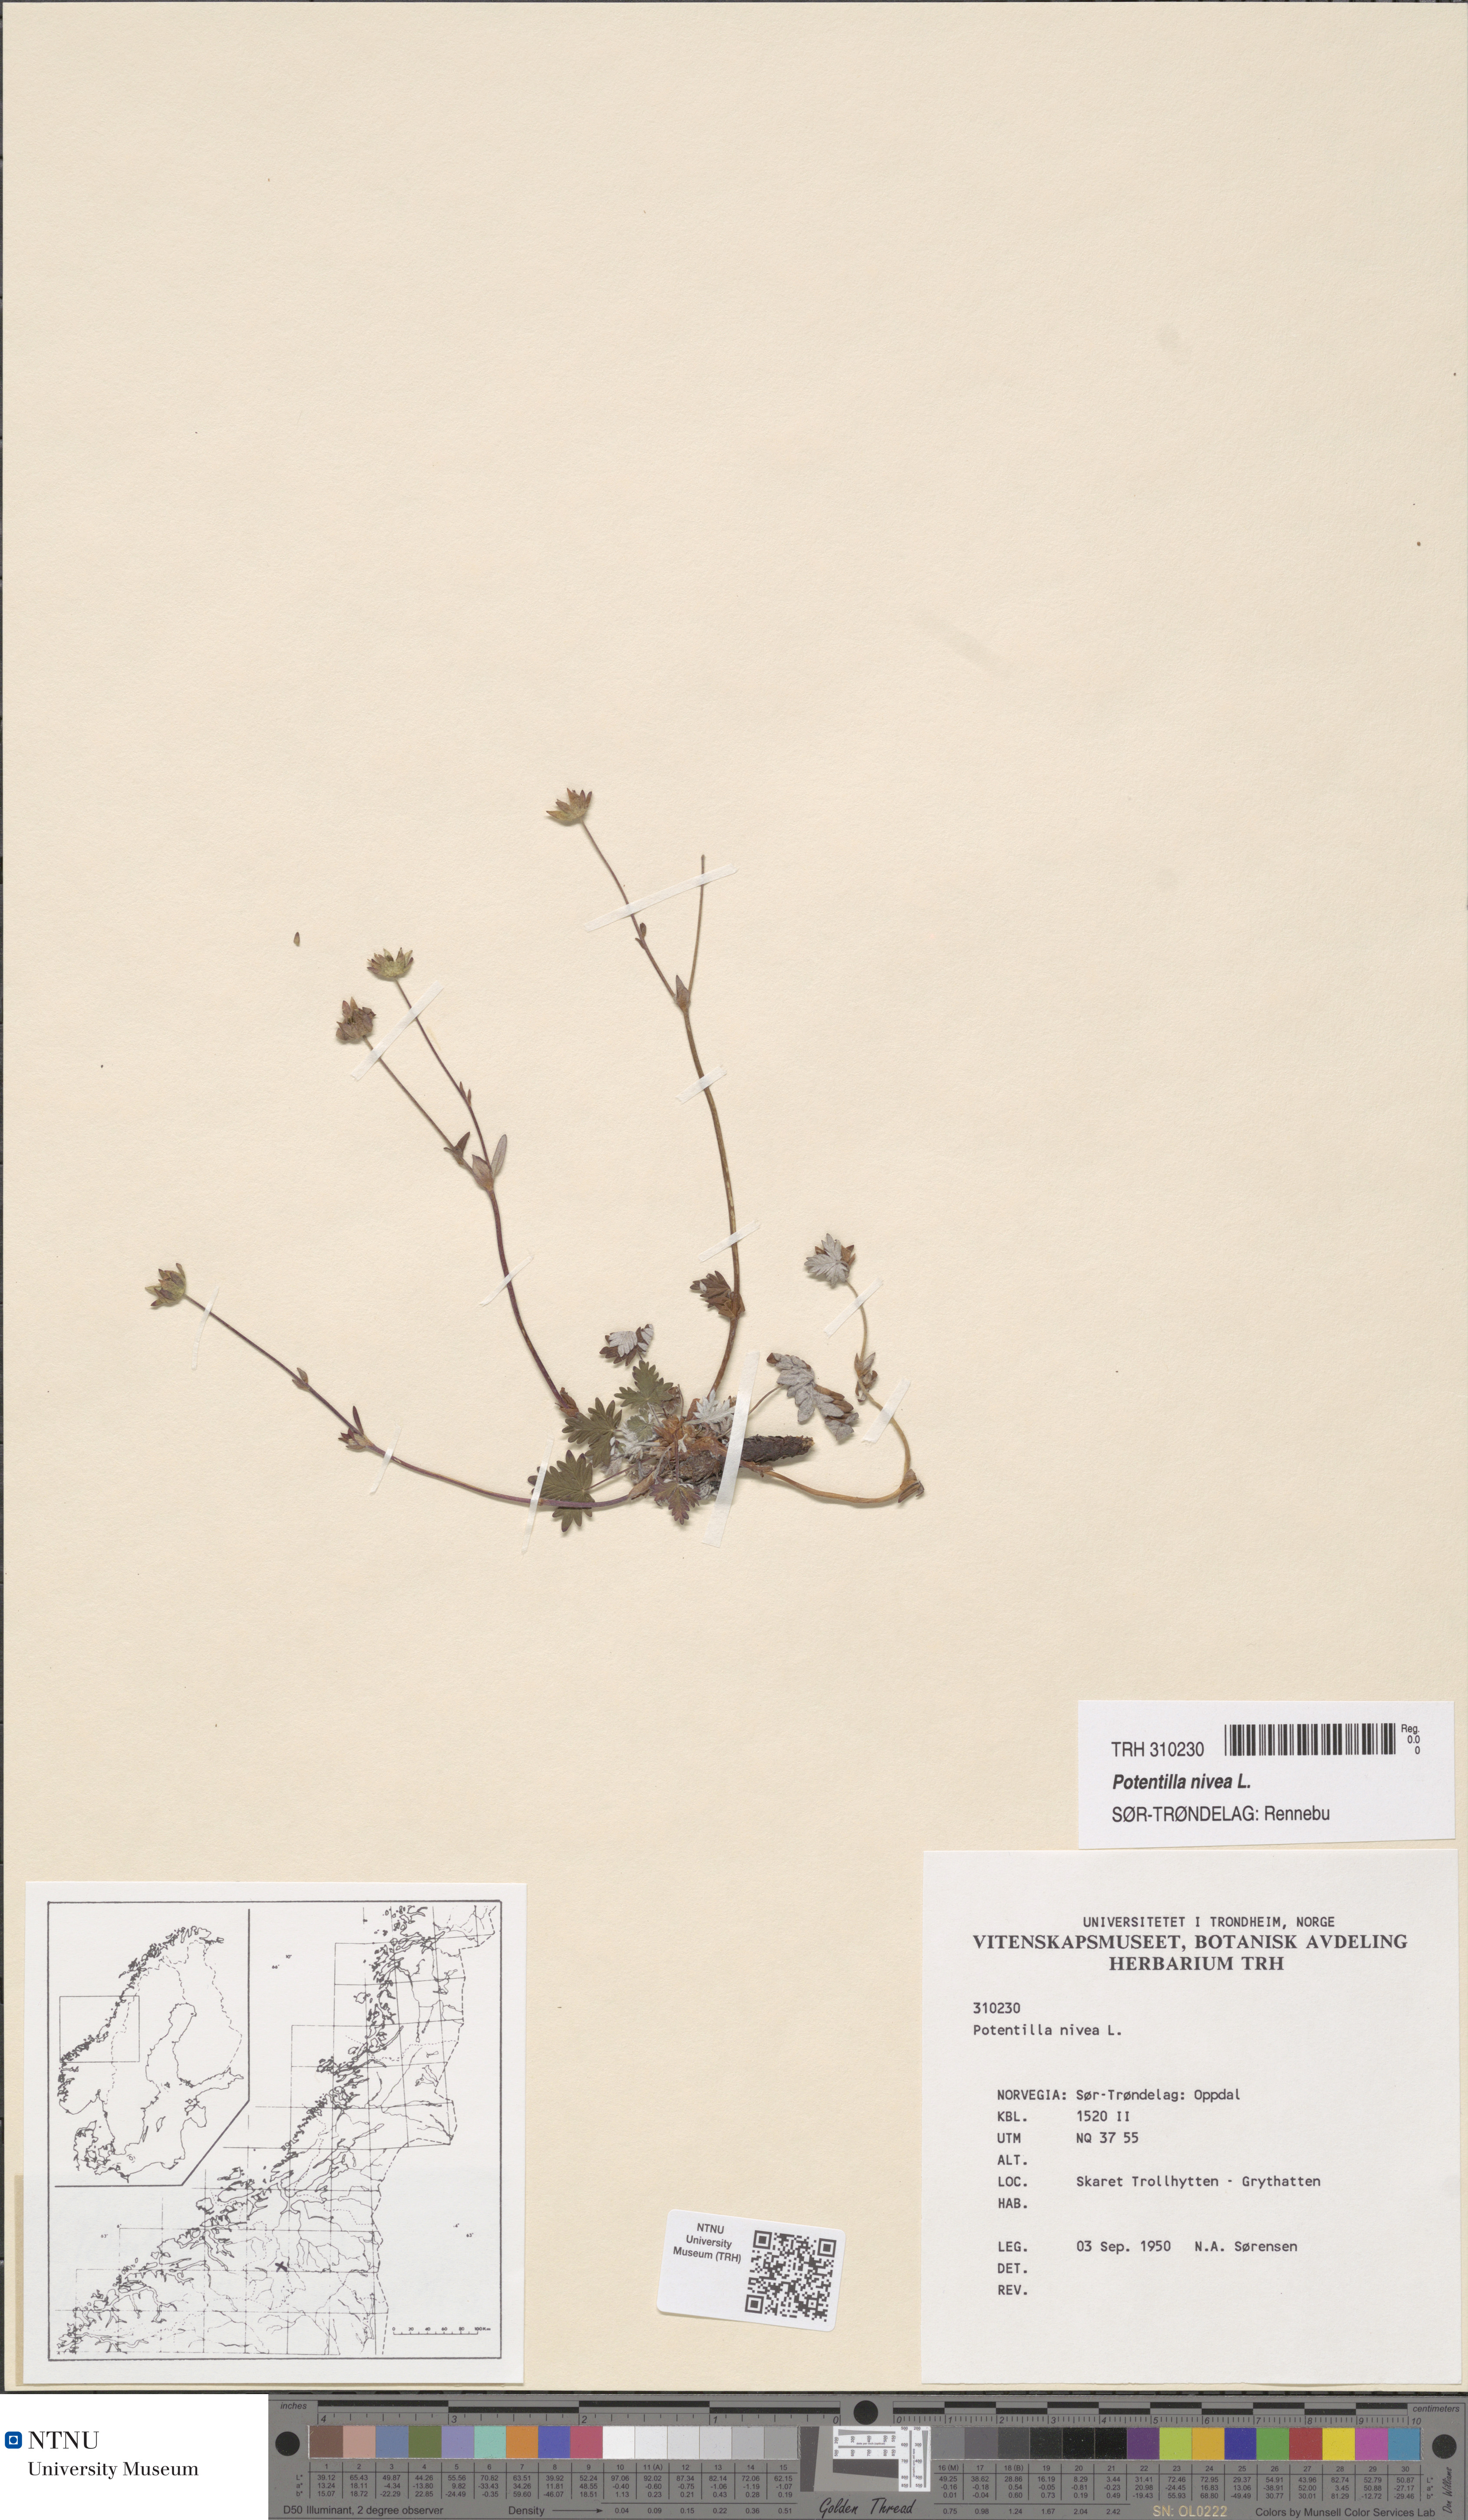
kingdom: Plantae
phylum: Tracheophyta
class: Magnoliopsida
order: Rosales
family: Rosaceae
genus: Potentilla
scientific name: Potentilla nivea
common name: Snow cinquefoil
